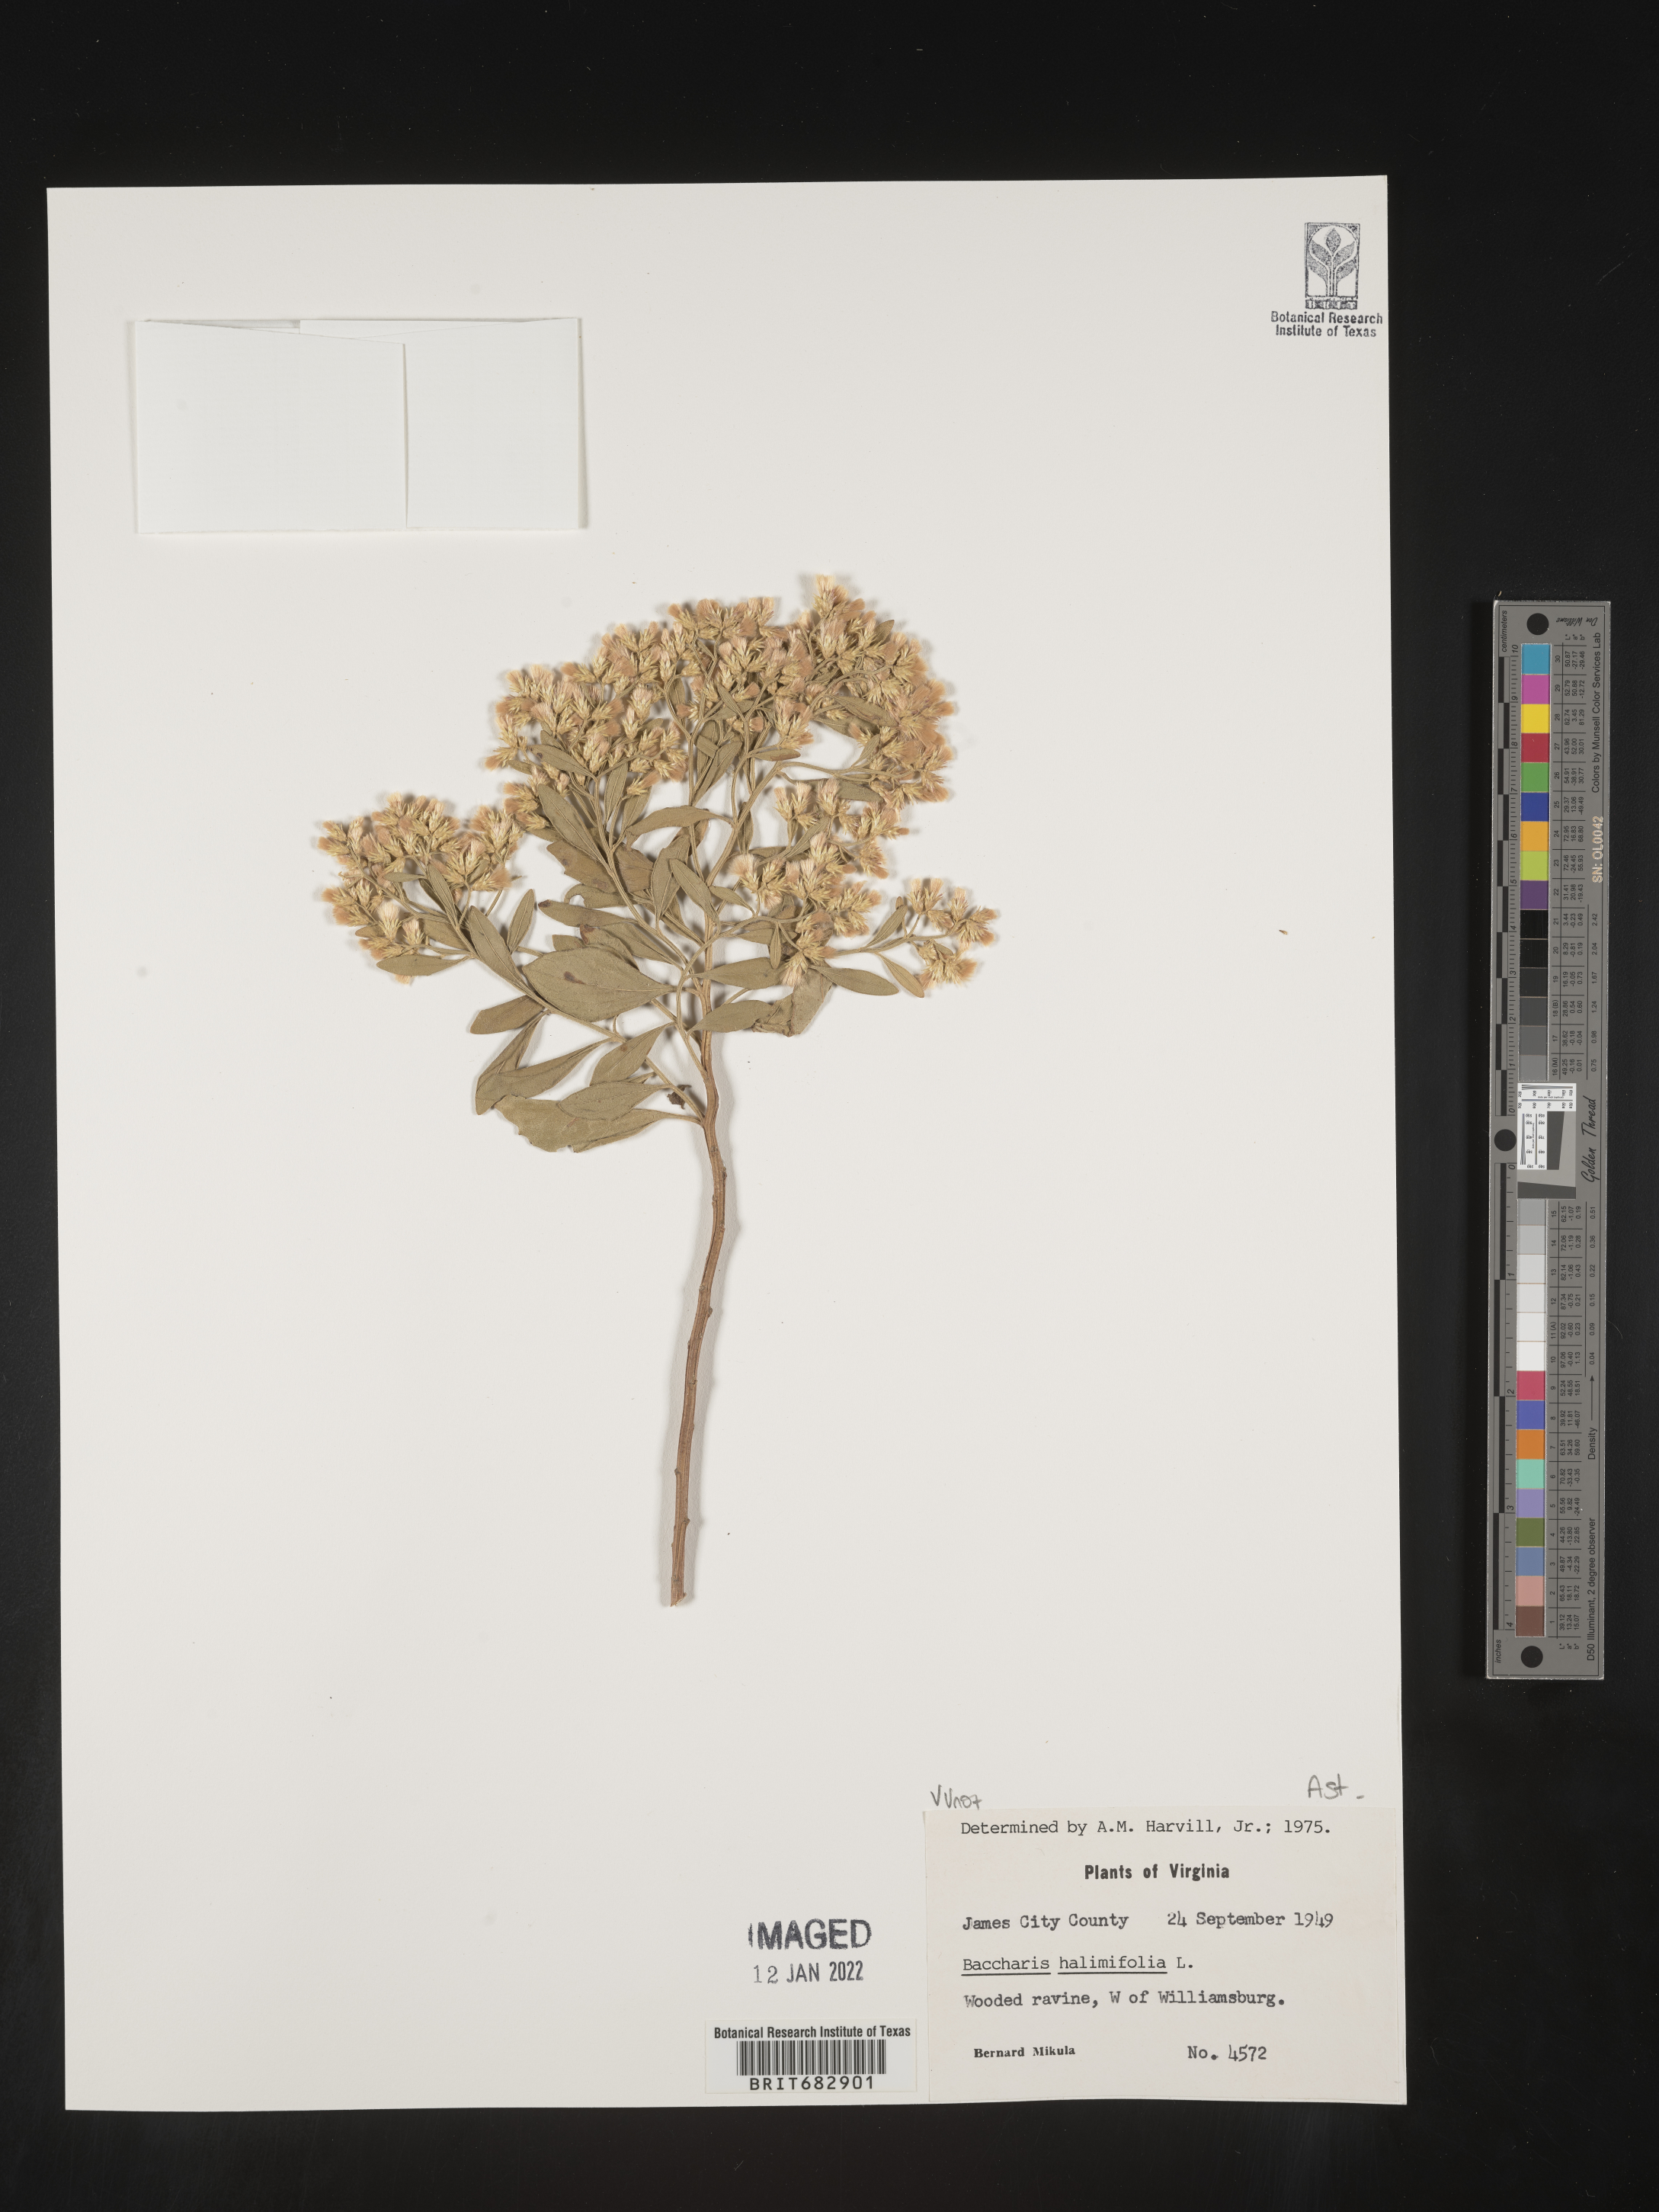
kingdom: Plantae
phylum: Tracheophyta
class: Magnoliopsida
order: Asterales
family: Asteraceae
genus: Nidorella
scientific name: Nidorella ivifolia
